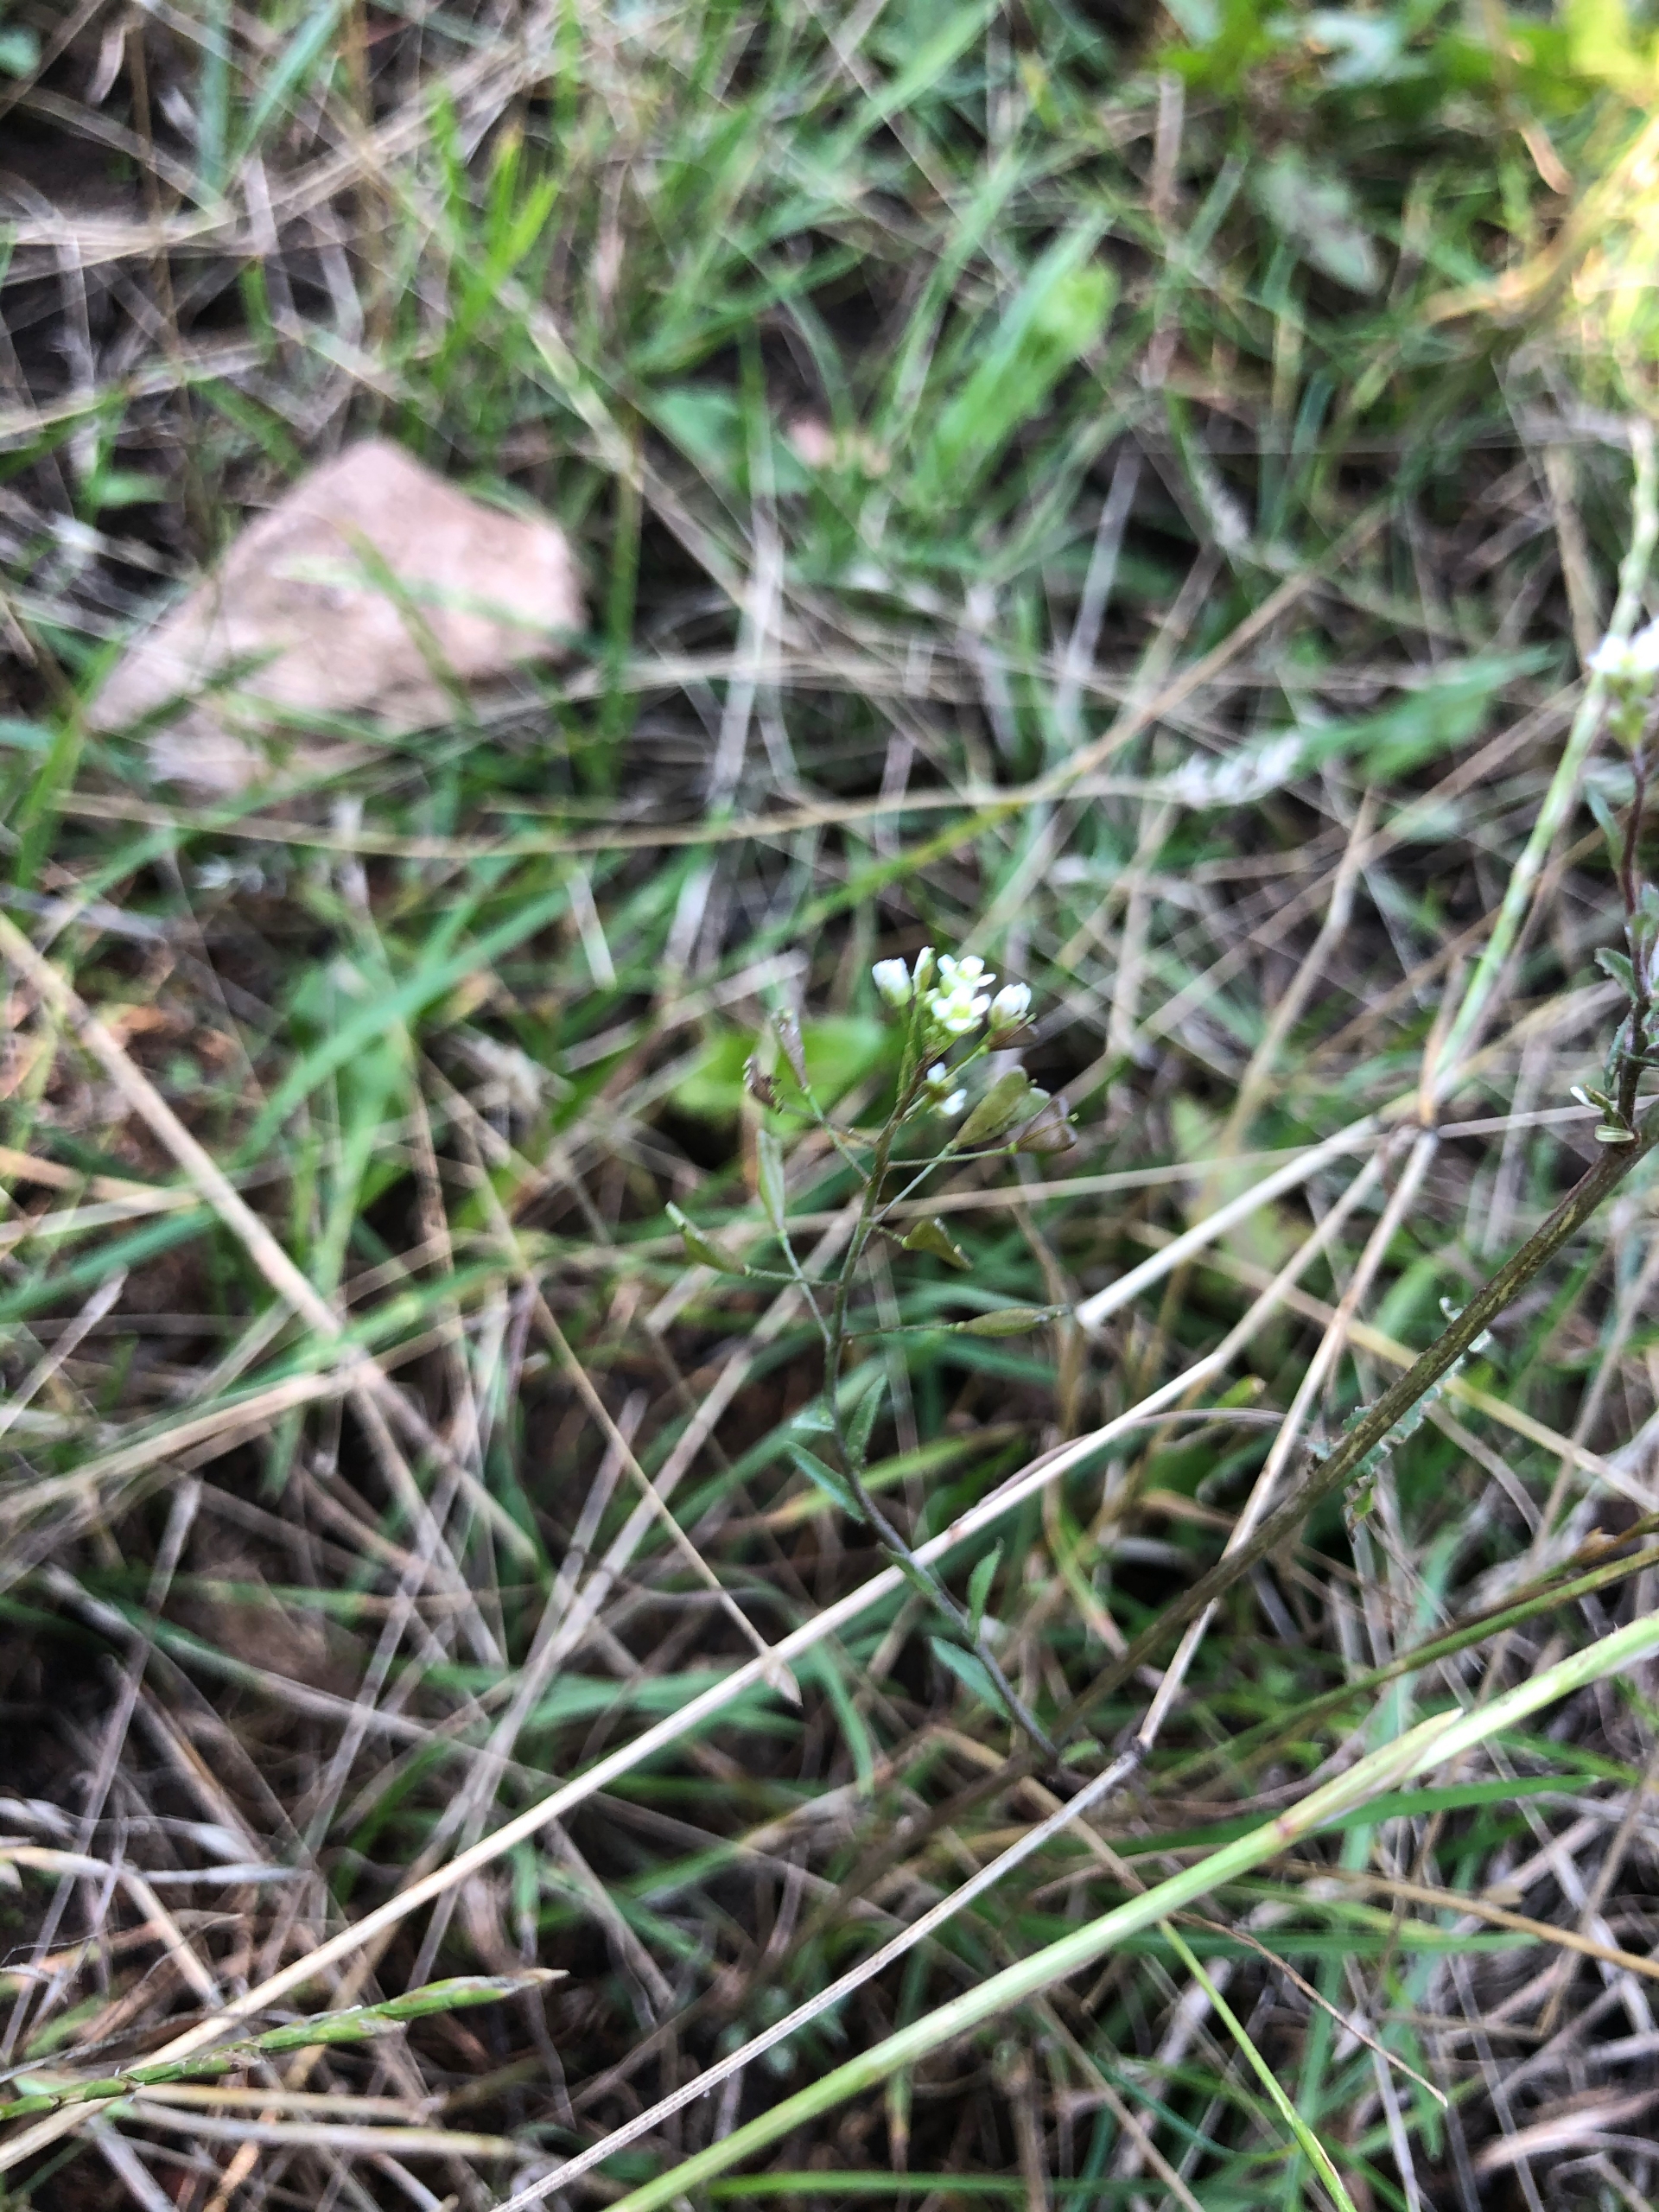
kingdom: Plantae
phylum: Tracheophyta
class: Magnoliopsida
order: Brassicales
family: Brassicaceae
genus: Capsella
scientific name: Capsella bursa-pastoris
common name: Hyrdetaske
